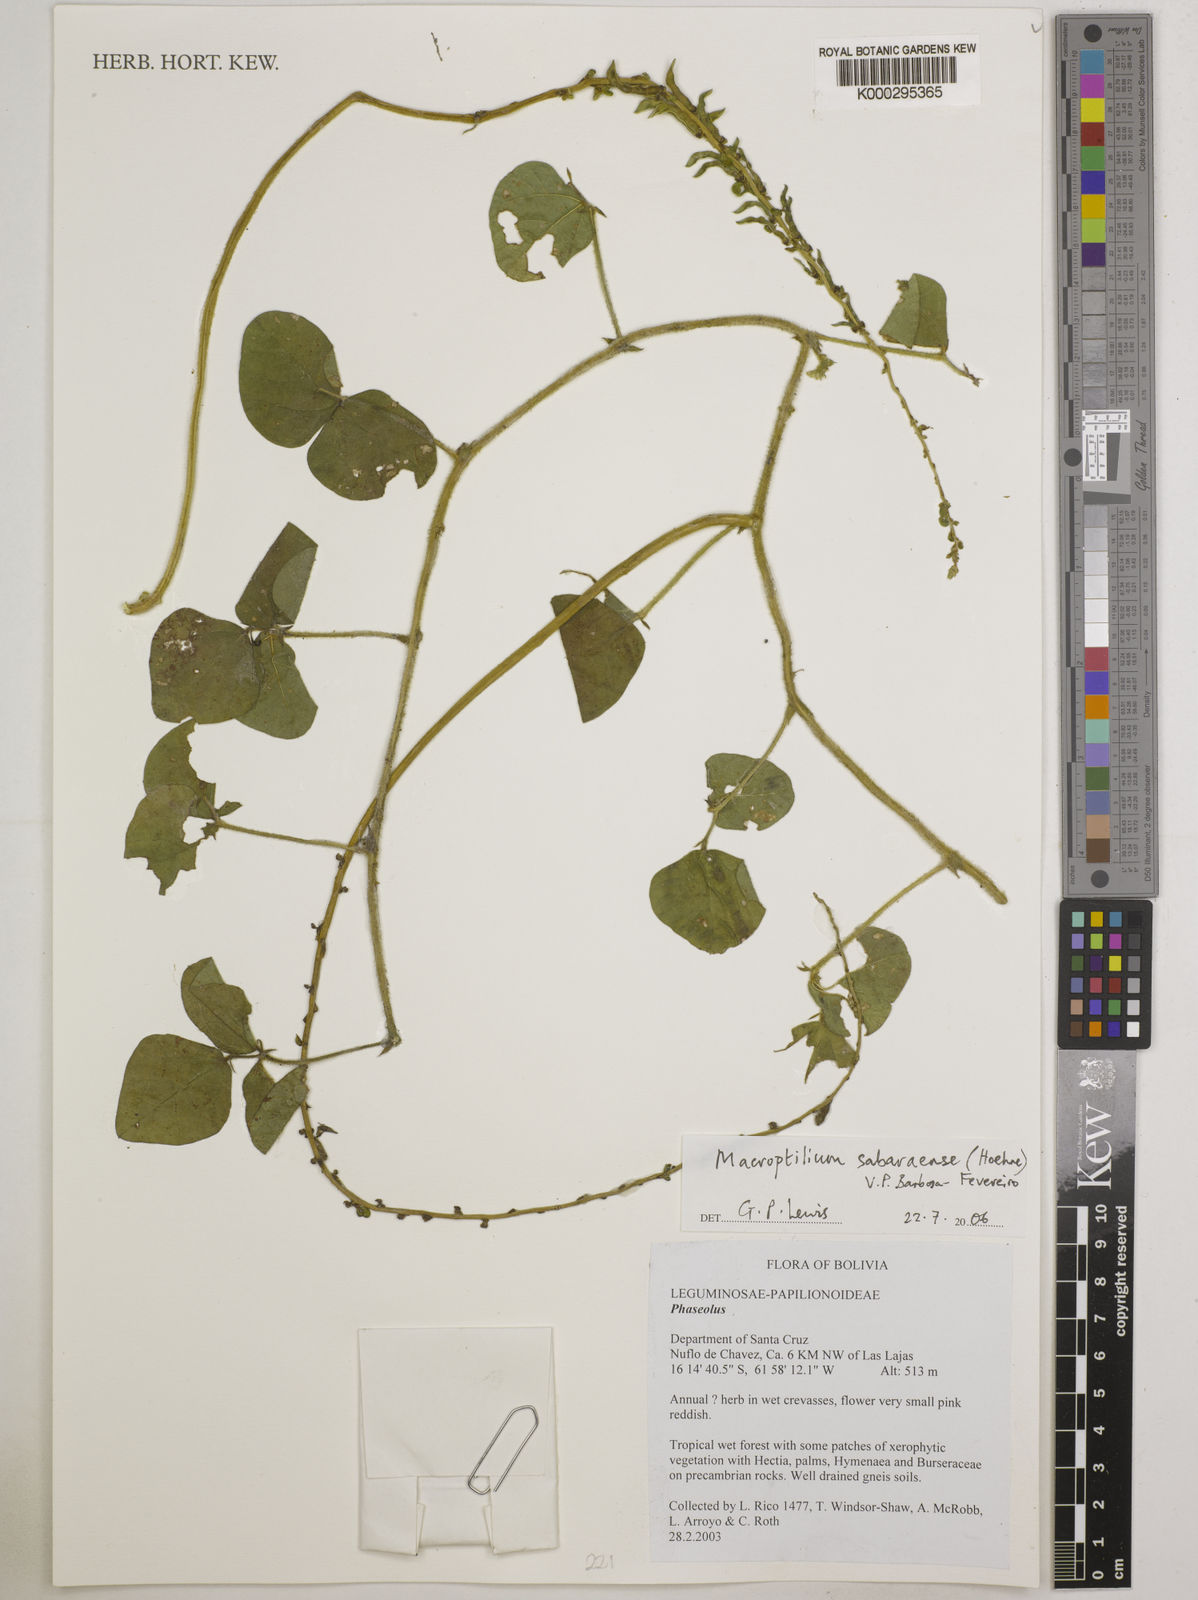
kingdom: Plantae
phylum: Tracheophyta
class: Magnoliopsida
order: Fabales
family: Fabaceae
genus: Macroptilium
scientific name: Macroptilium sabaraense
